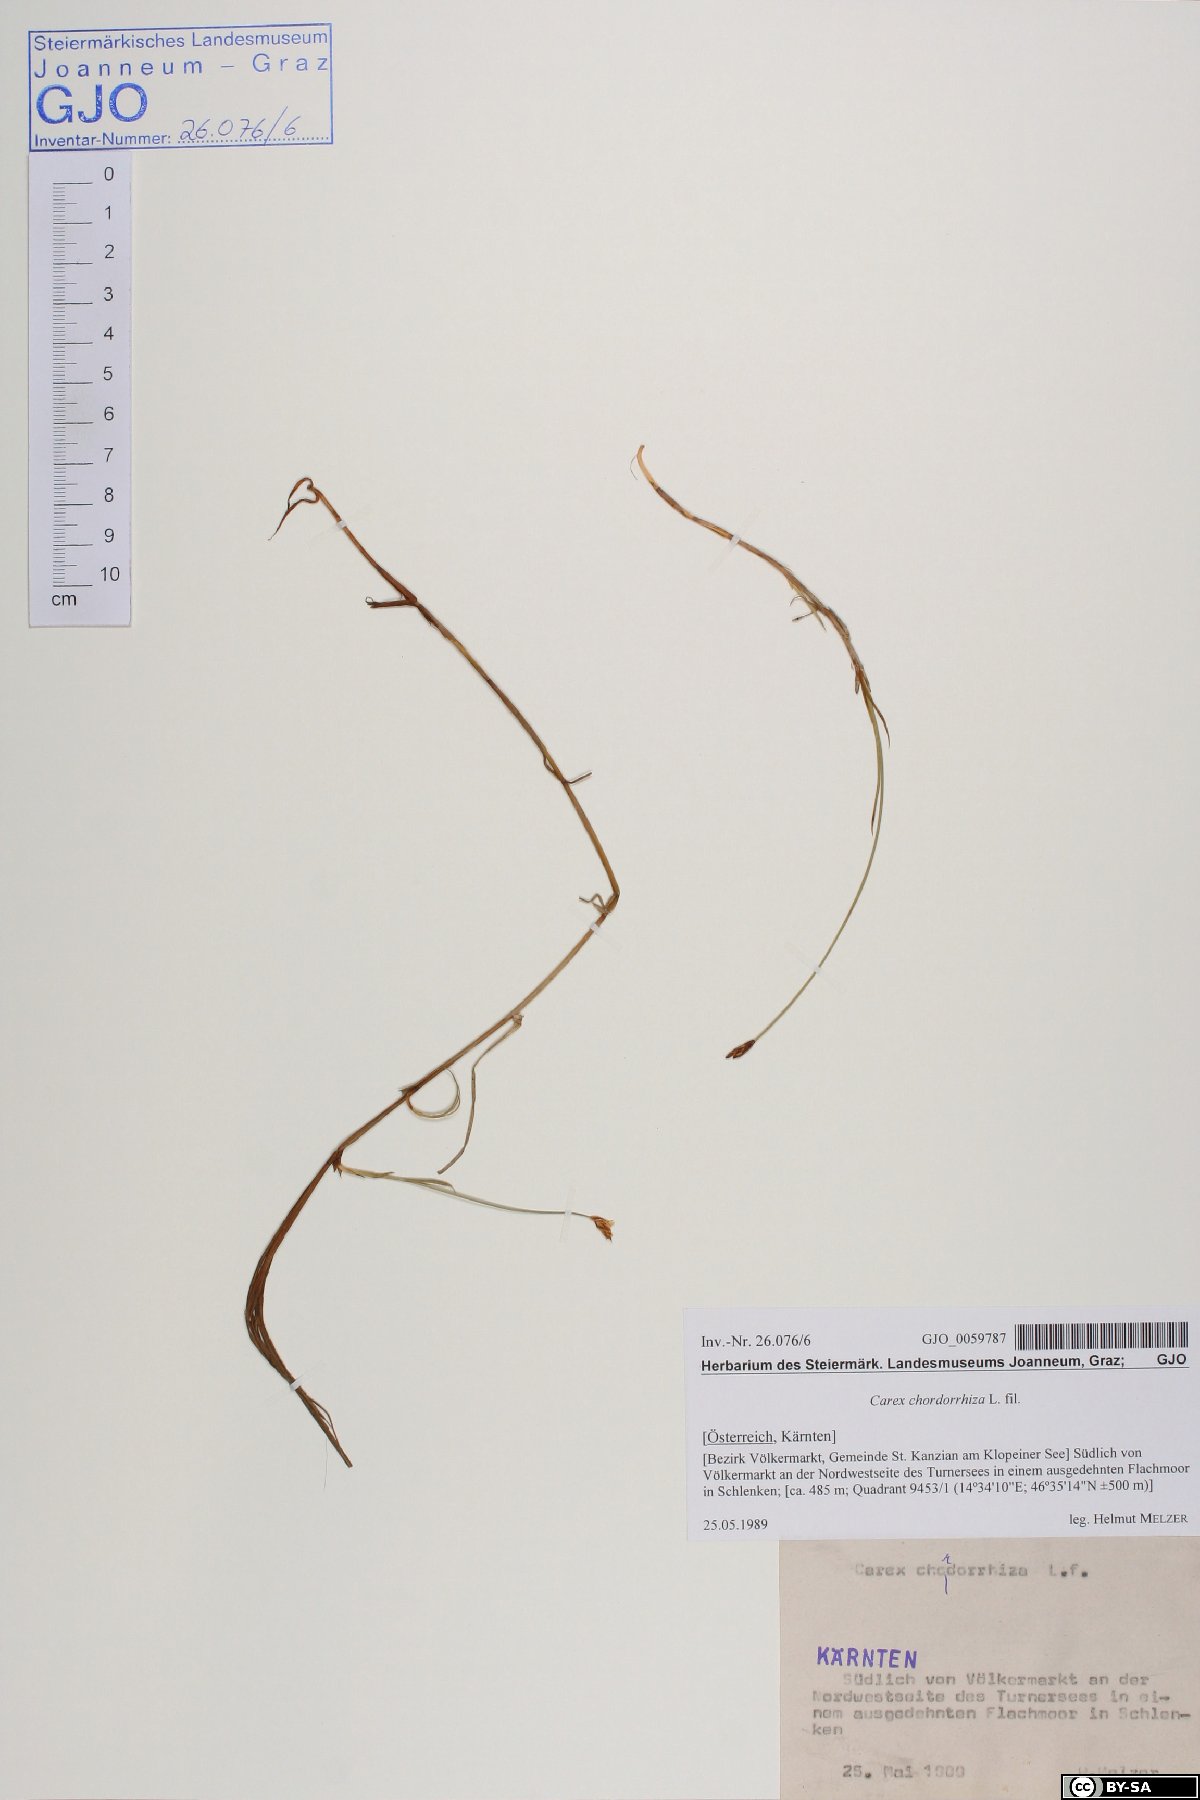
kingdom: Plantae
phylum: Tracheophyta
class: Liliopsida
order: Poales
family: Cyperaceae
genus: Carex
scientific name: Carex chordorrhiza
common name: String sedge
